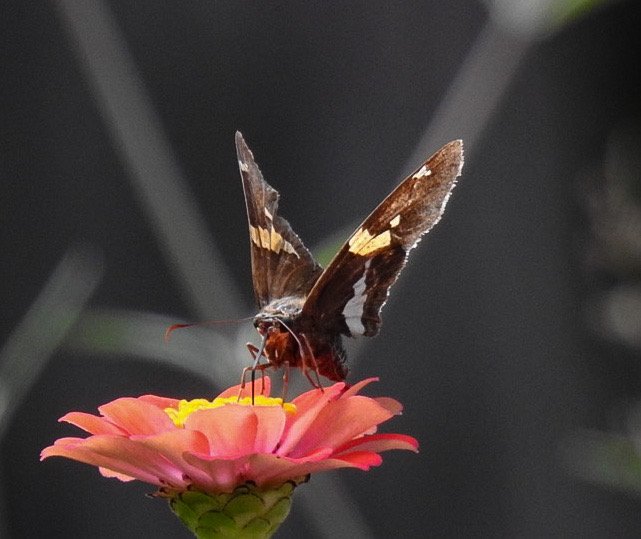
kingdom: Animalia
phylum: Arthropoda
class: Insecta
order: Lepidoptera
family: Hesperiidae
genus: Epargyreus
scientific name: Epargyreus clarus
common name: Silver-spotted Skipper
